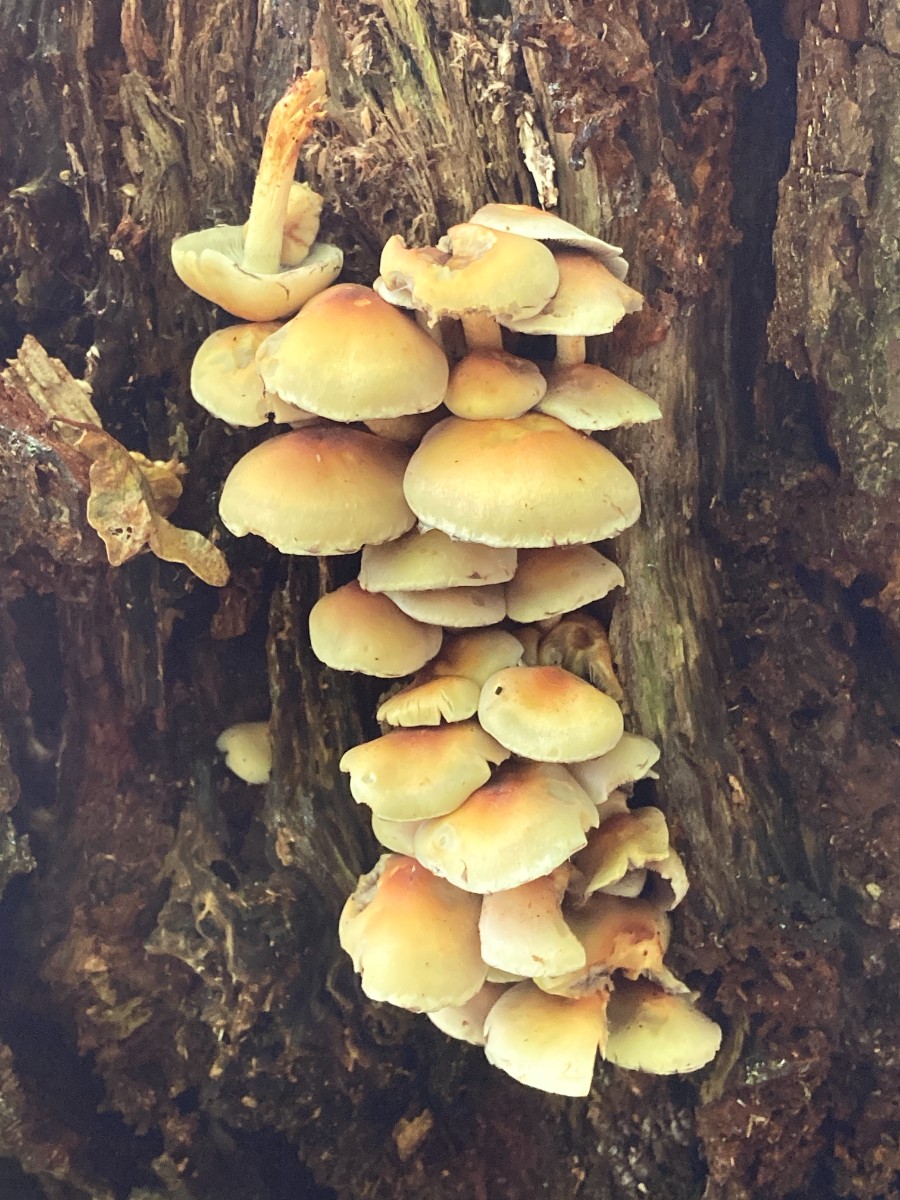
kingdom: Fungi
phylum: Basidiomycota
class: Agaricomycetes
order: Agaricales
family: Strophariaceae
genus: Hypholoma
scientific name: Hypholoma fasciculare
